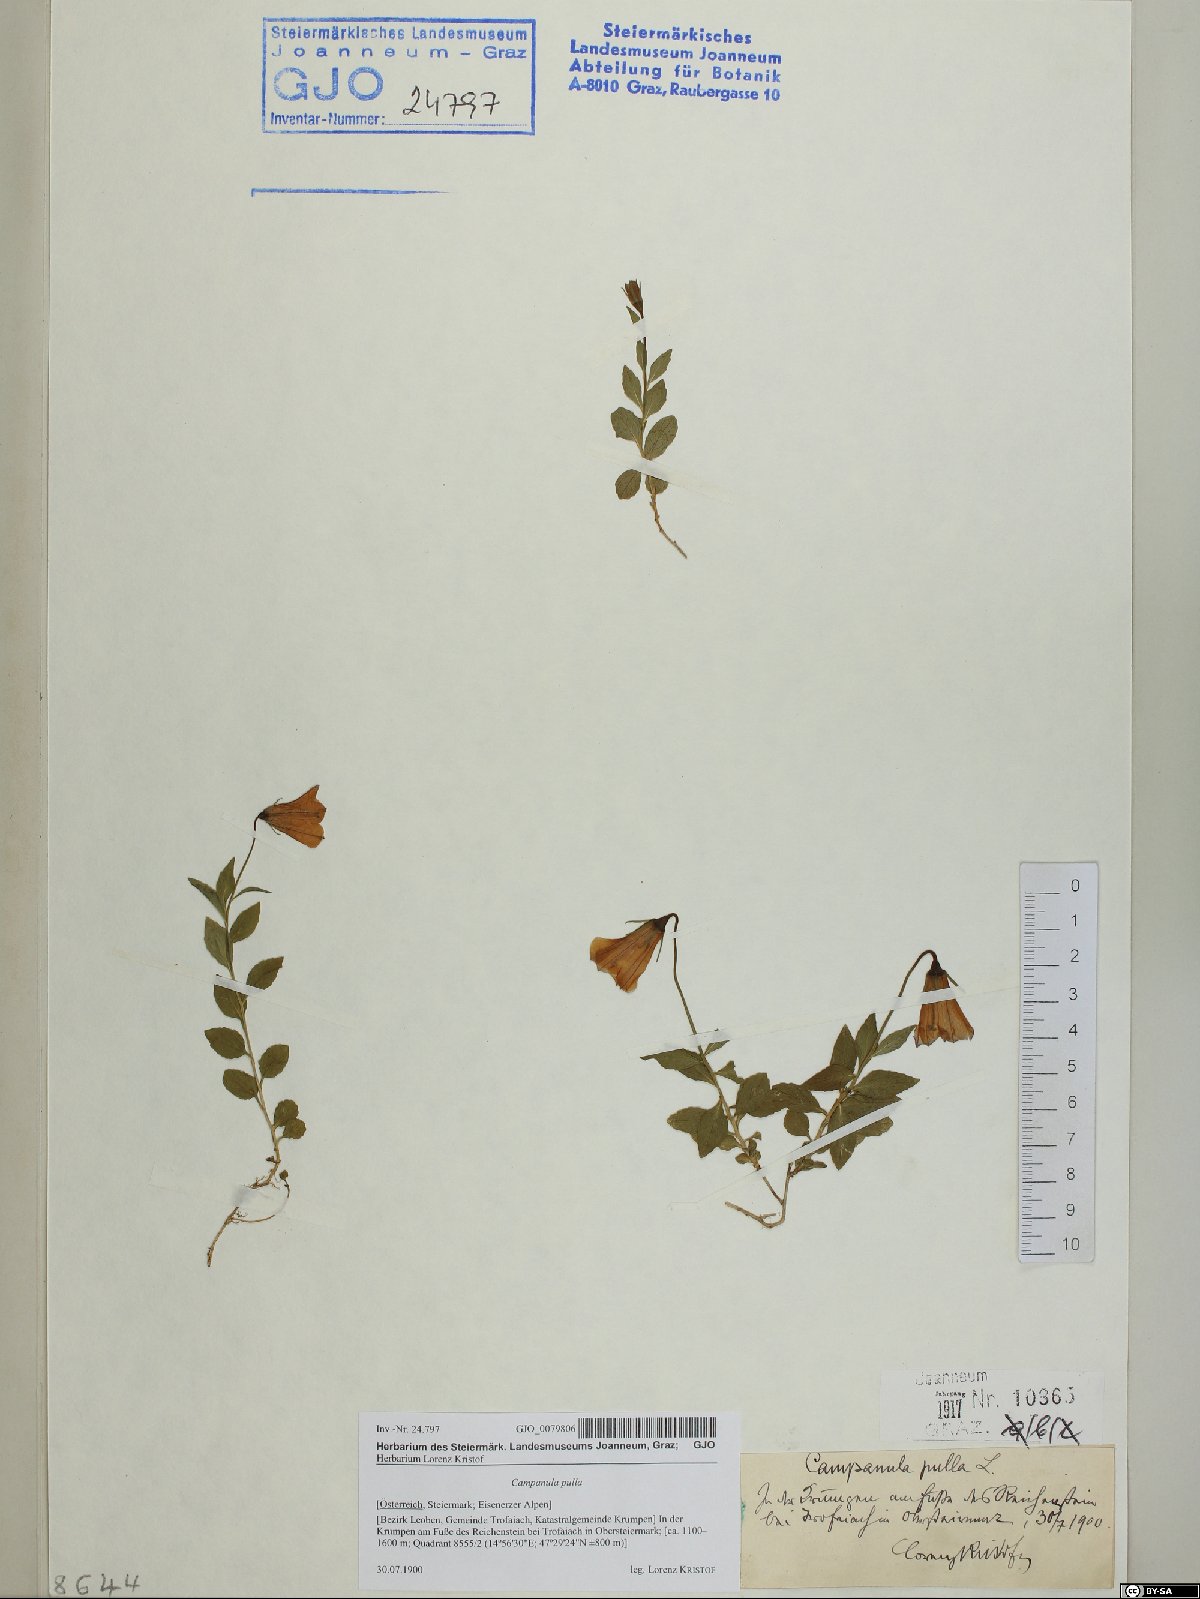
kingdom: Plantae
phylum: Tracheophyta
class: Magnoliopsida
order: Asterales
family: Campanulaceae
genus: Campanula
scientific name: Campanula pulla
